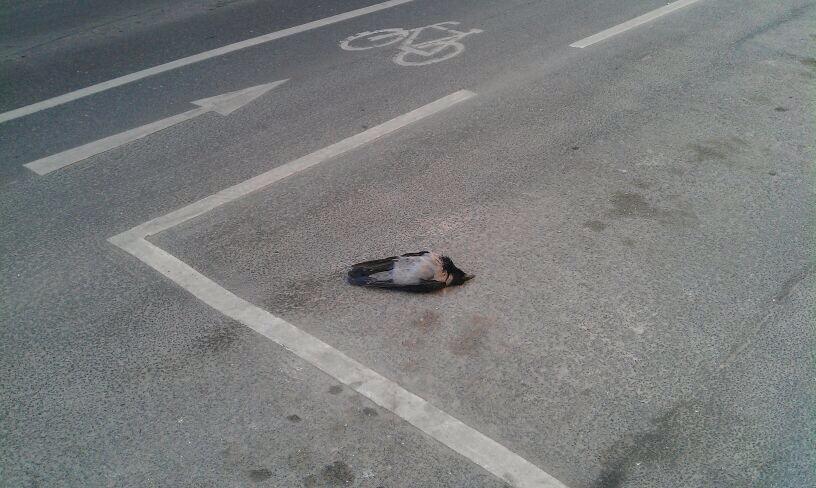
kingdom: Animalia
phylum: Chordata
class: Aves
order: Passeriformes
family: Corvidae
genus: Corvus
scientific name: Corvus
